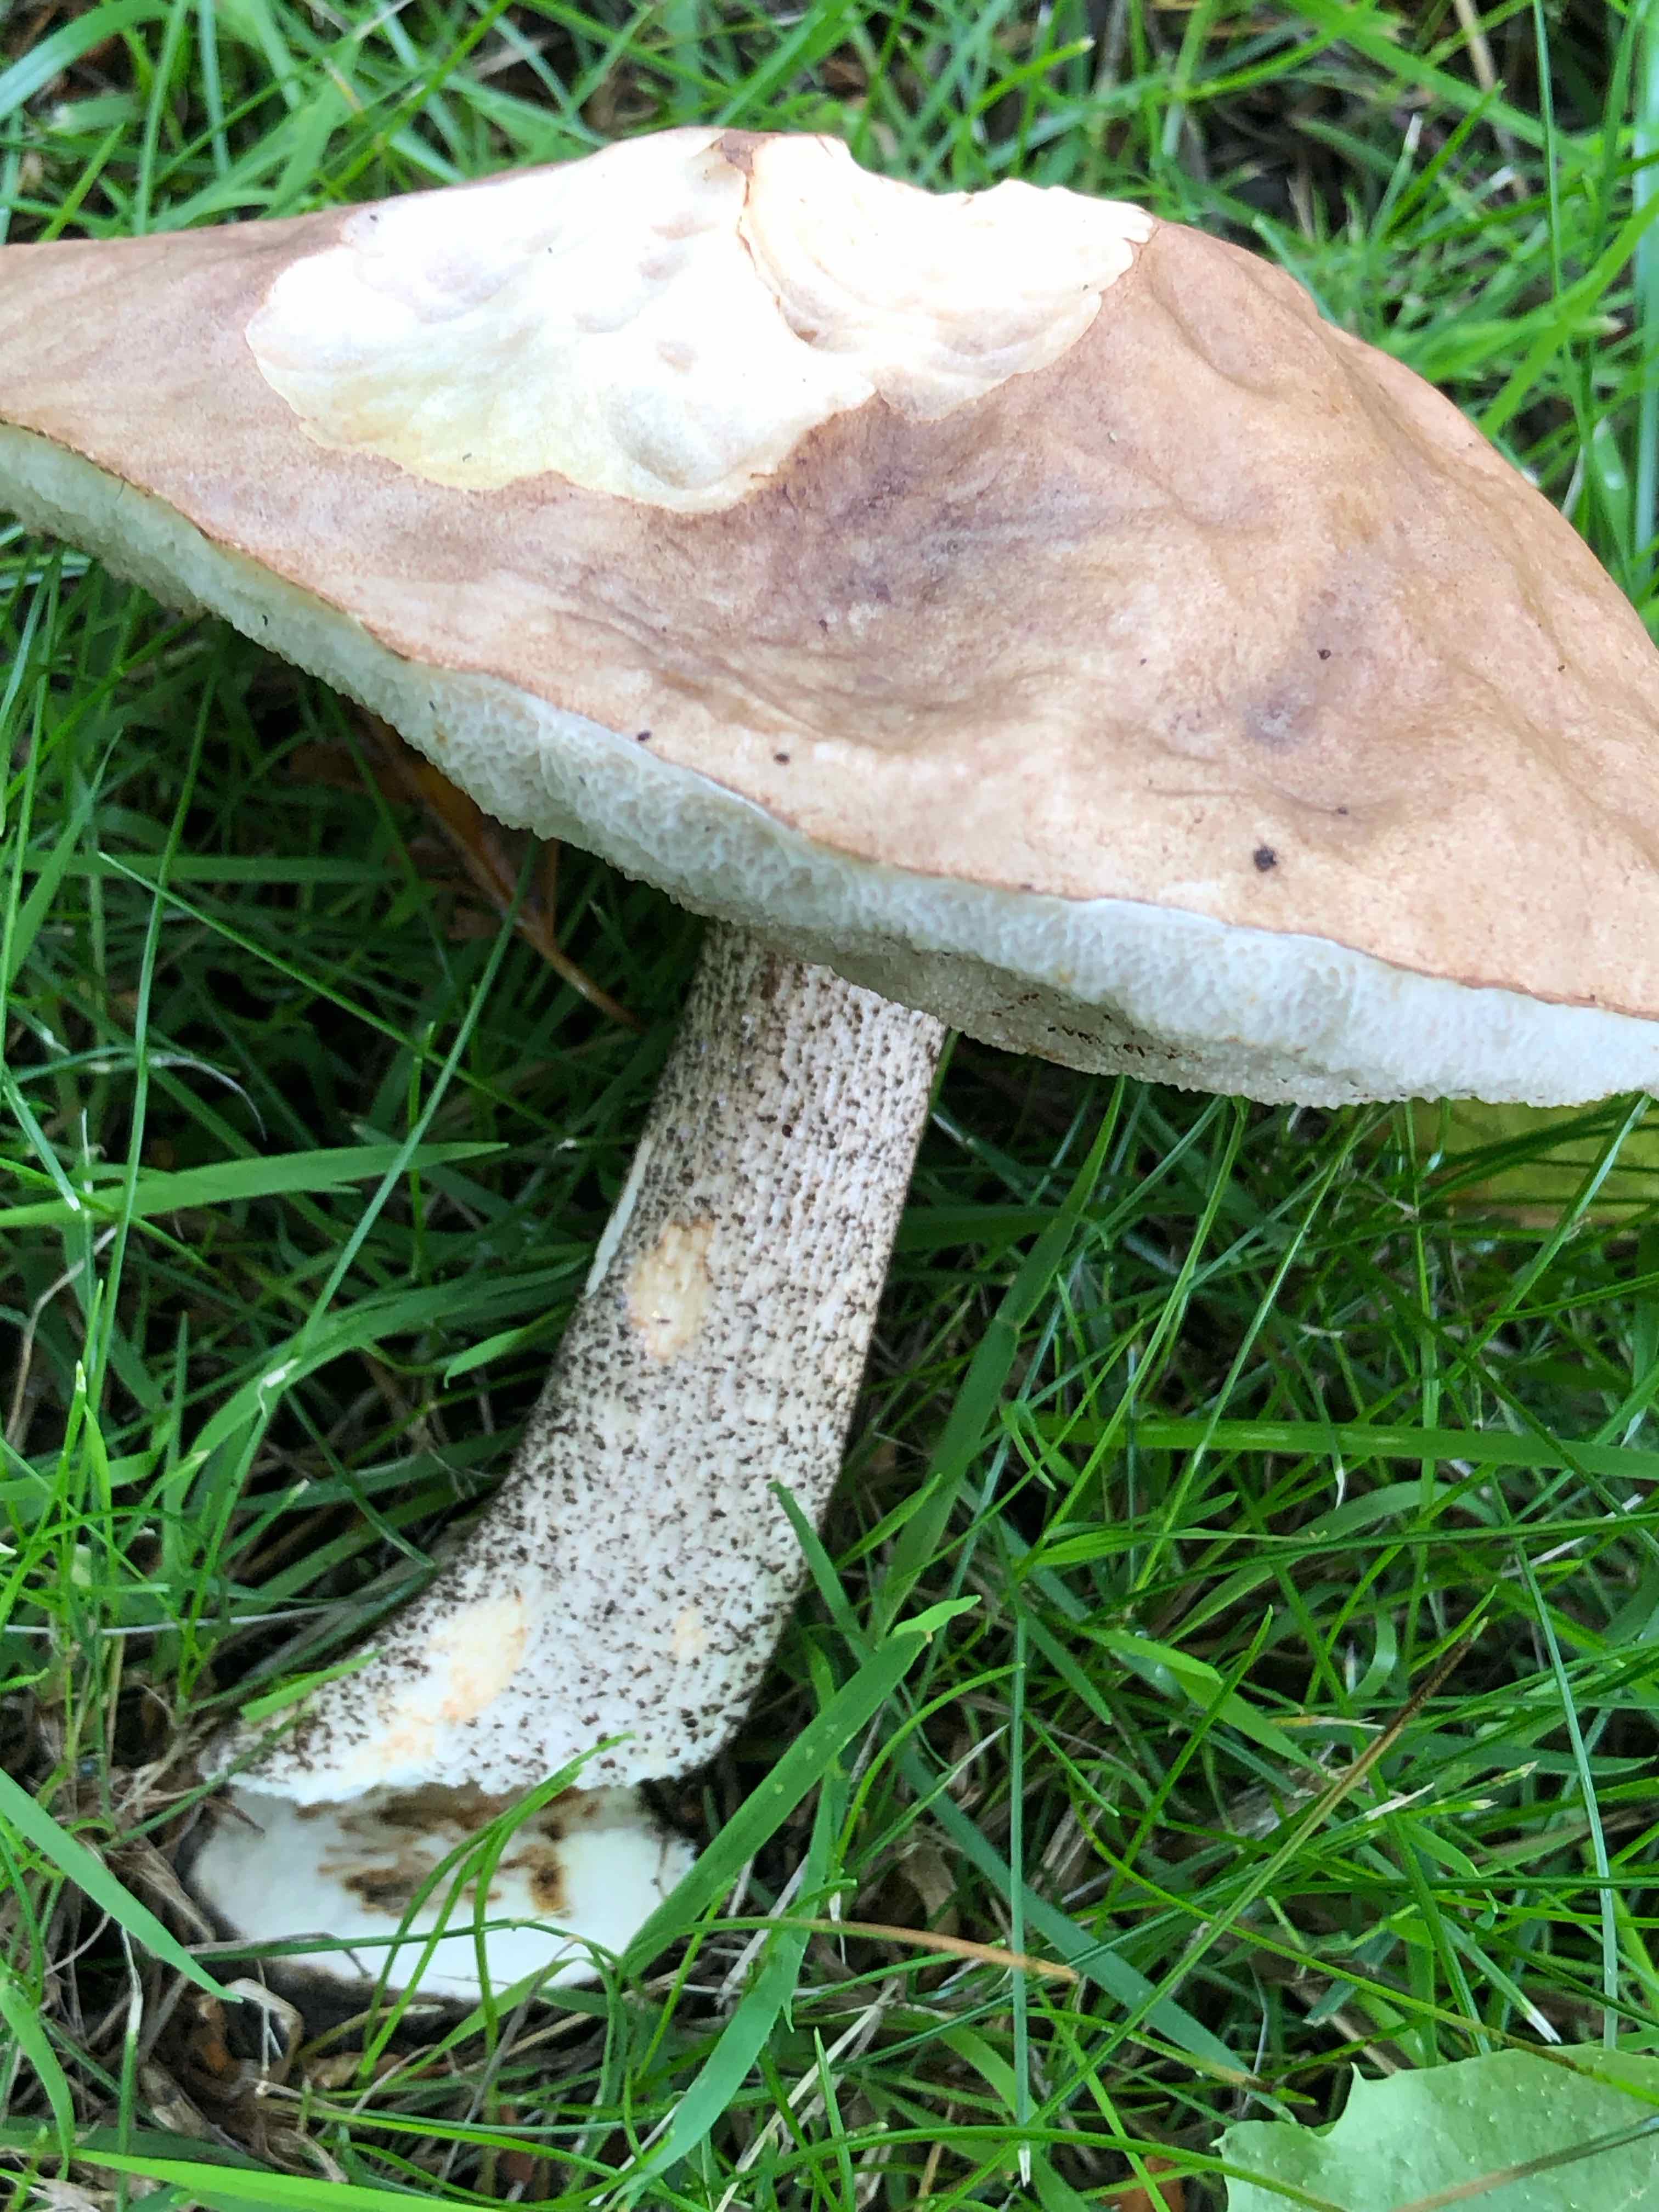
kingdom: Fungi
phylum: Basidiomycota
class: Agaricomycetes
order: Boletales
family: Boletaceae
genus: Leccinum
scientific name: Leccinum scabrum
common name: brun skælrørhat
